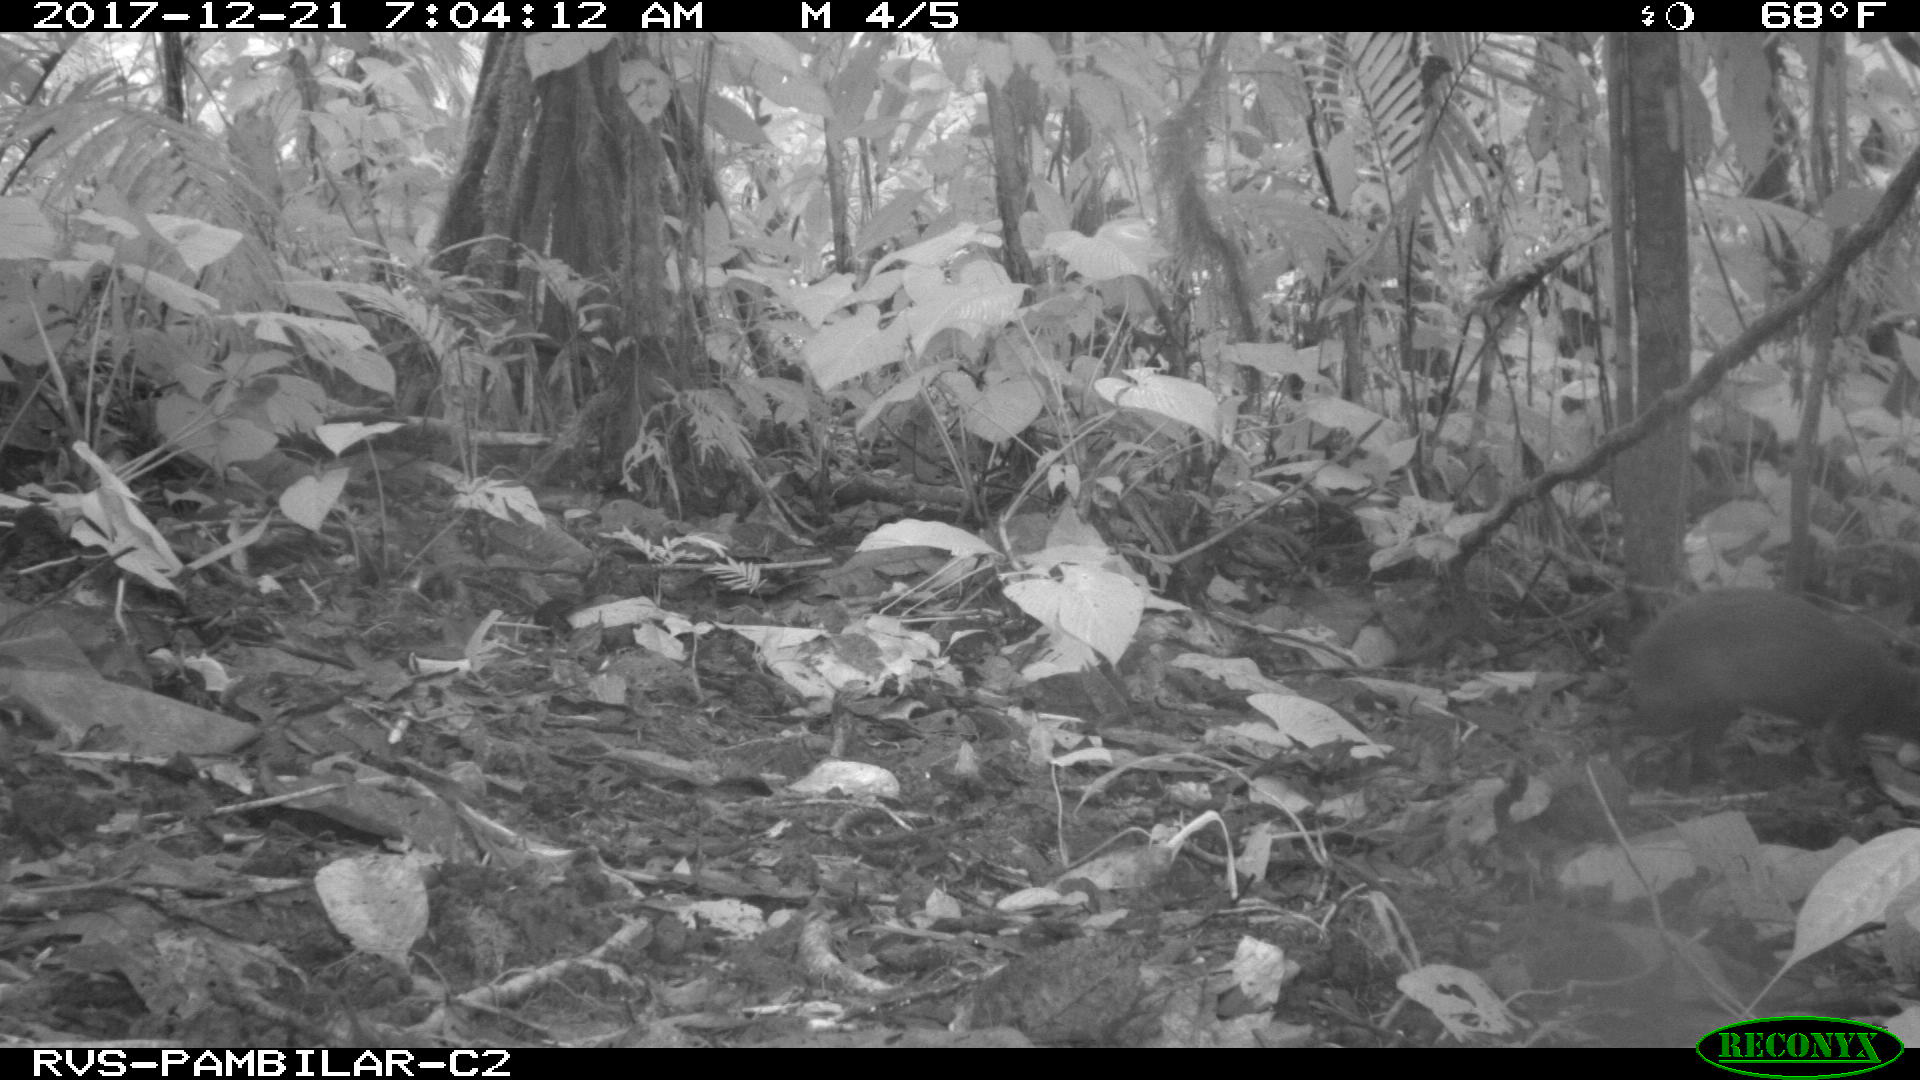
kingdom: Animalia
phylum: Chordata
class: Mammalia
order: Rodentia
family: Dasyproctidae
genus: Dasyprocta
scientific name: Dasyprocta punctata
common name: Central american agouti
